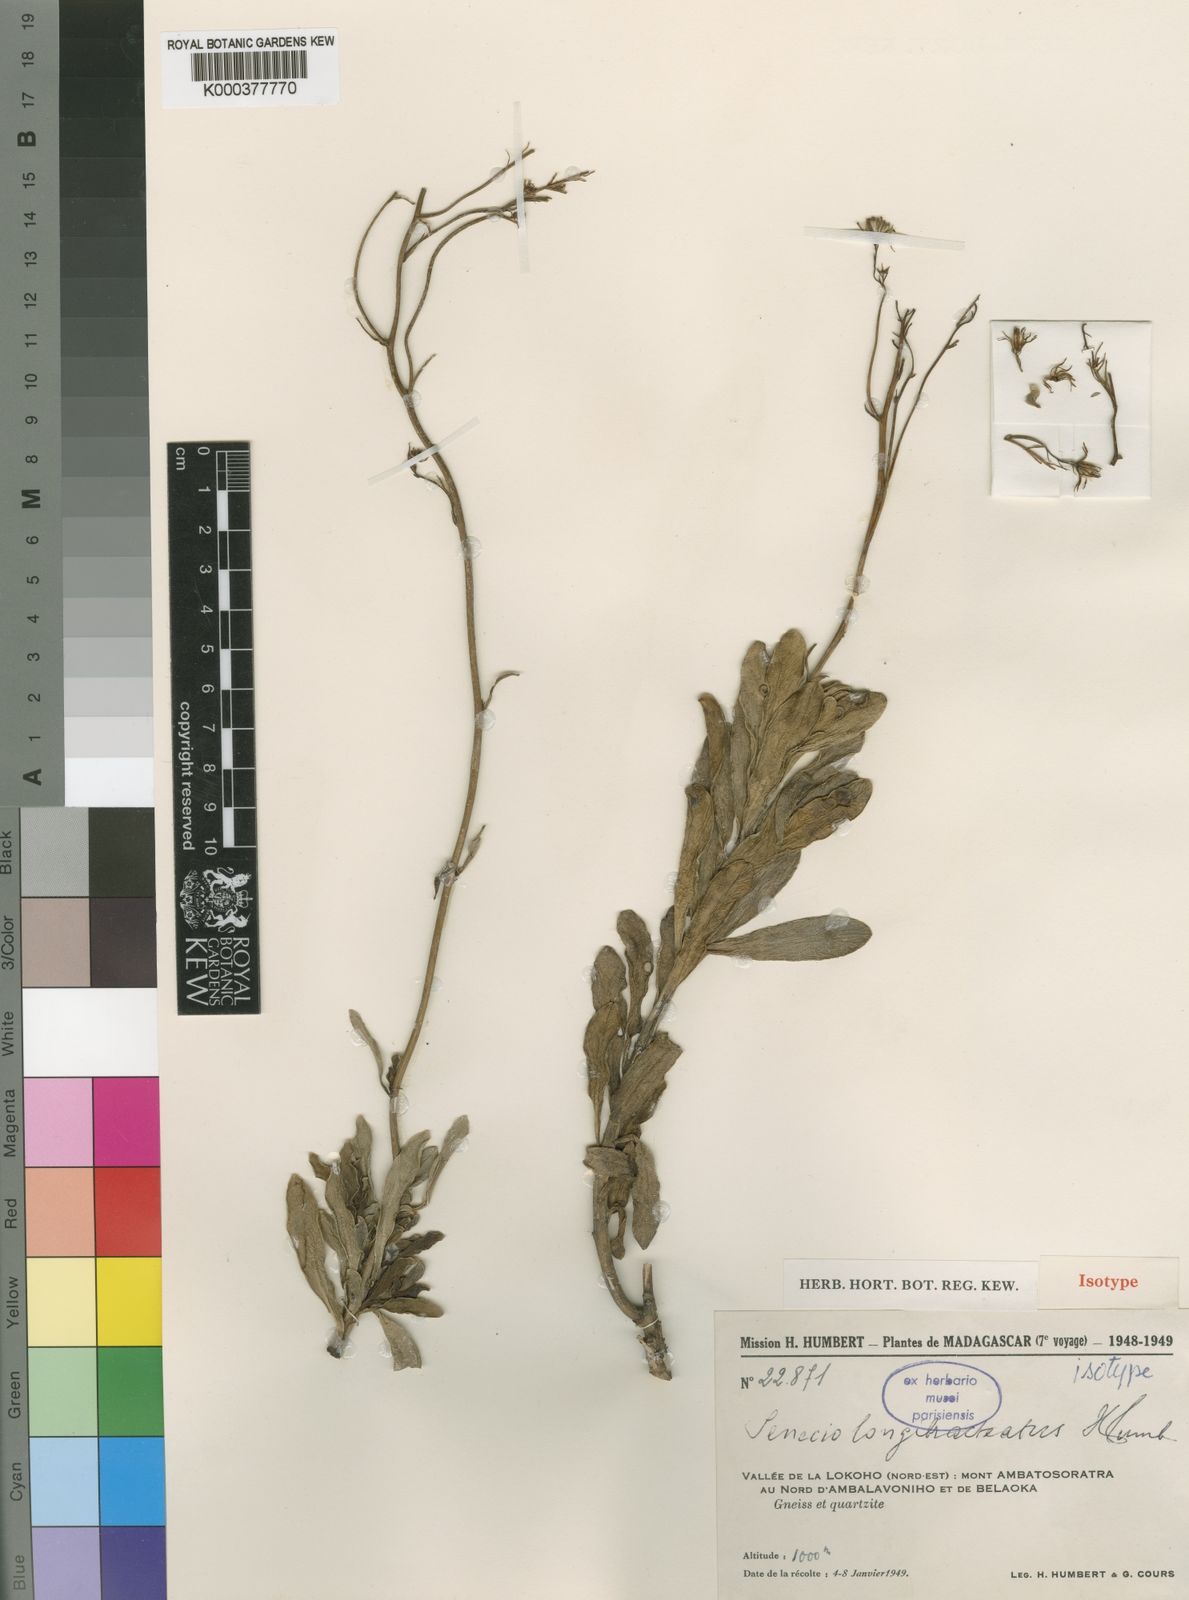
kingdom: Plantae
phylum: Tracheophyta
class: Magnoliopsida
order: Asterales
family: Asteraceae
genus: Senecio
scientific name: Senecio
